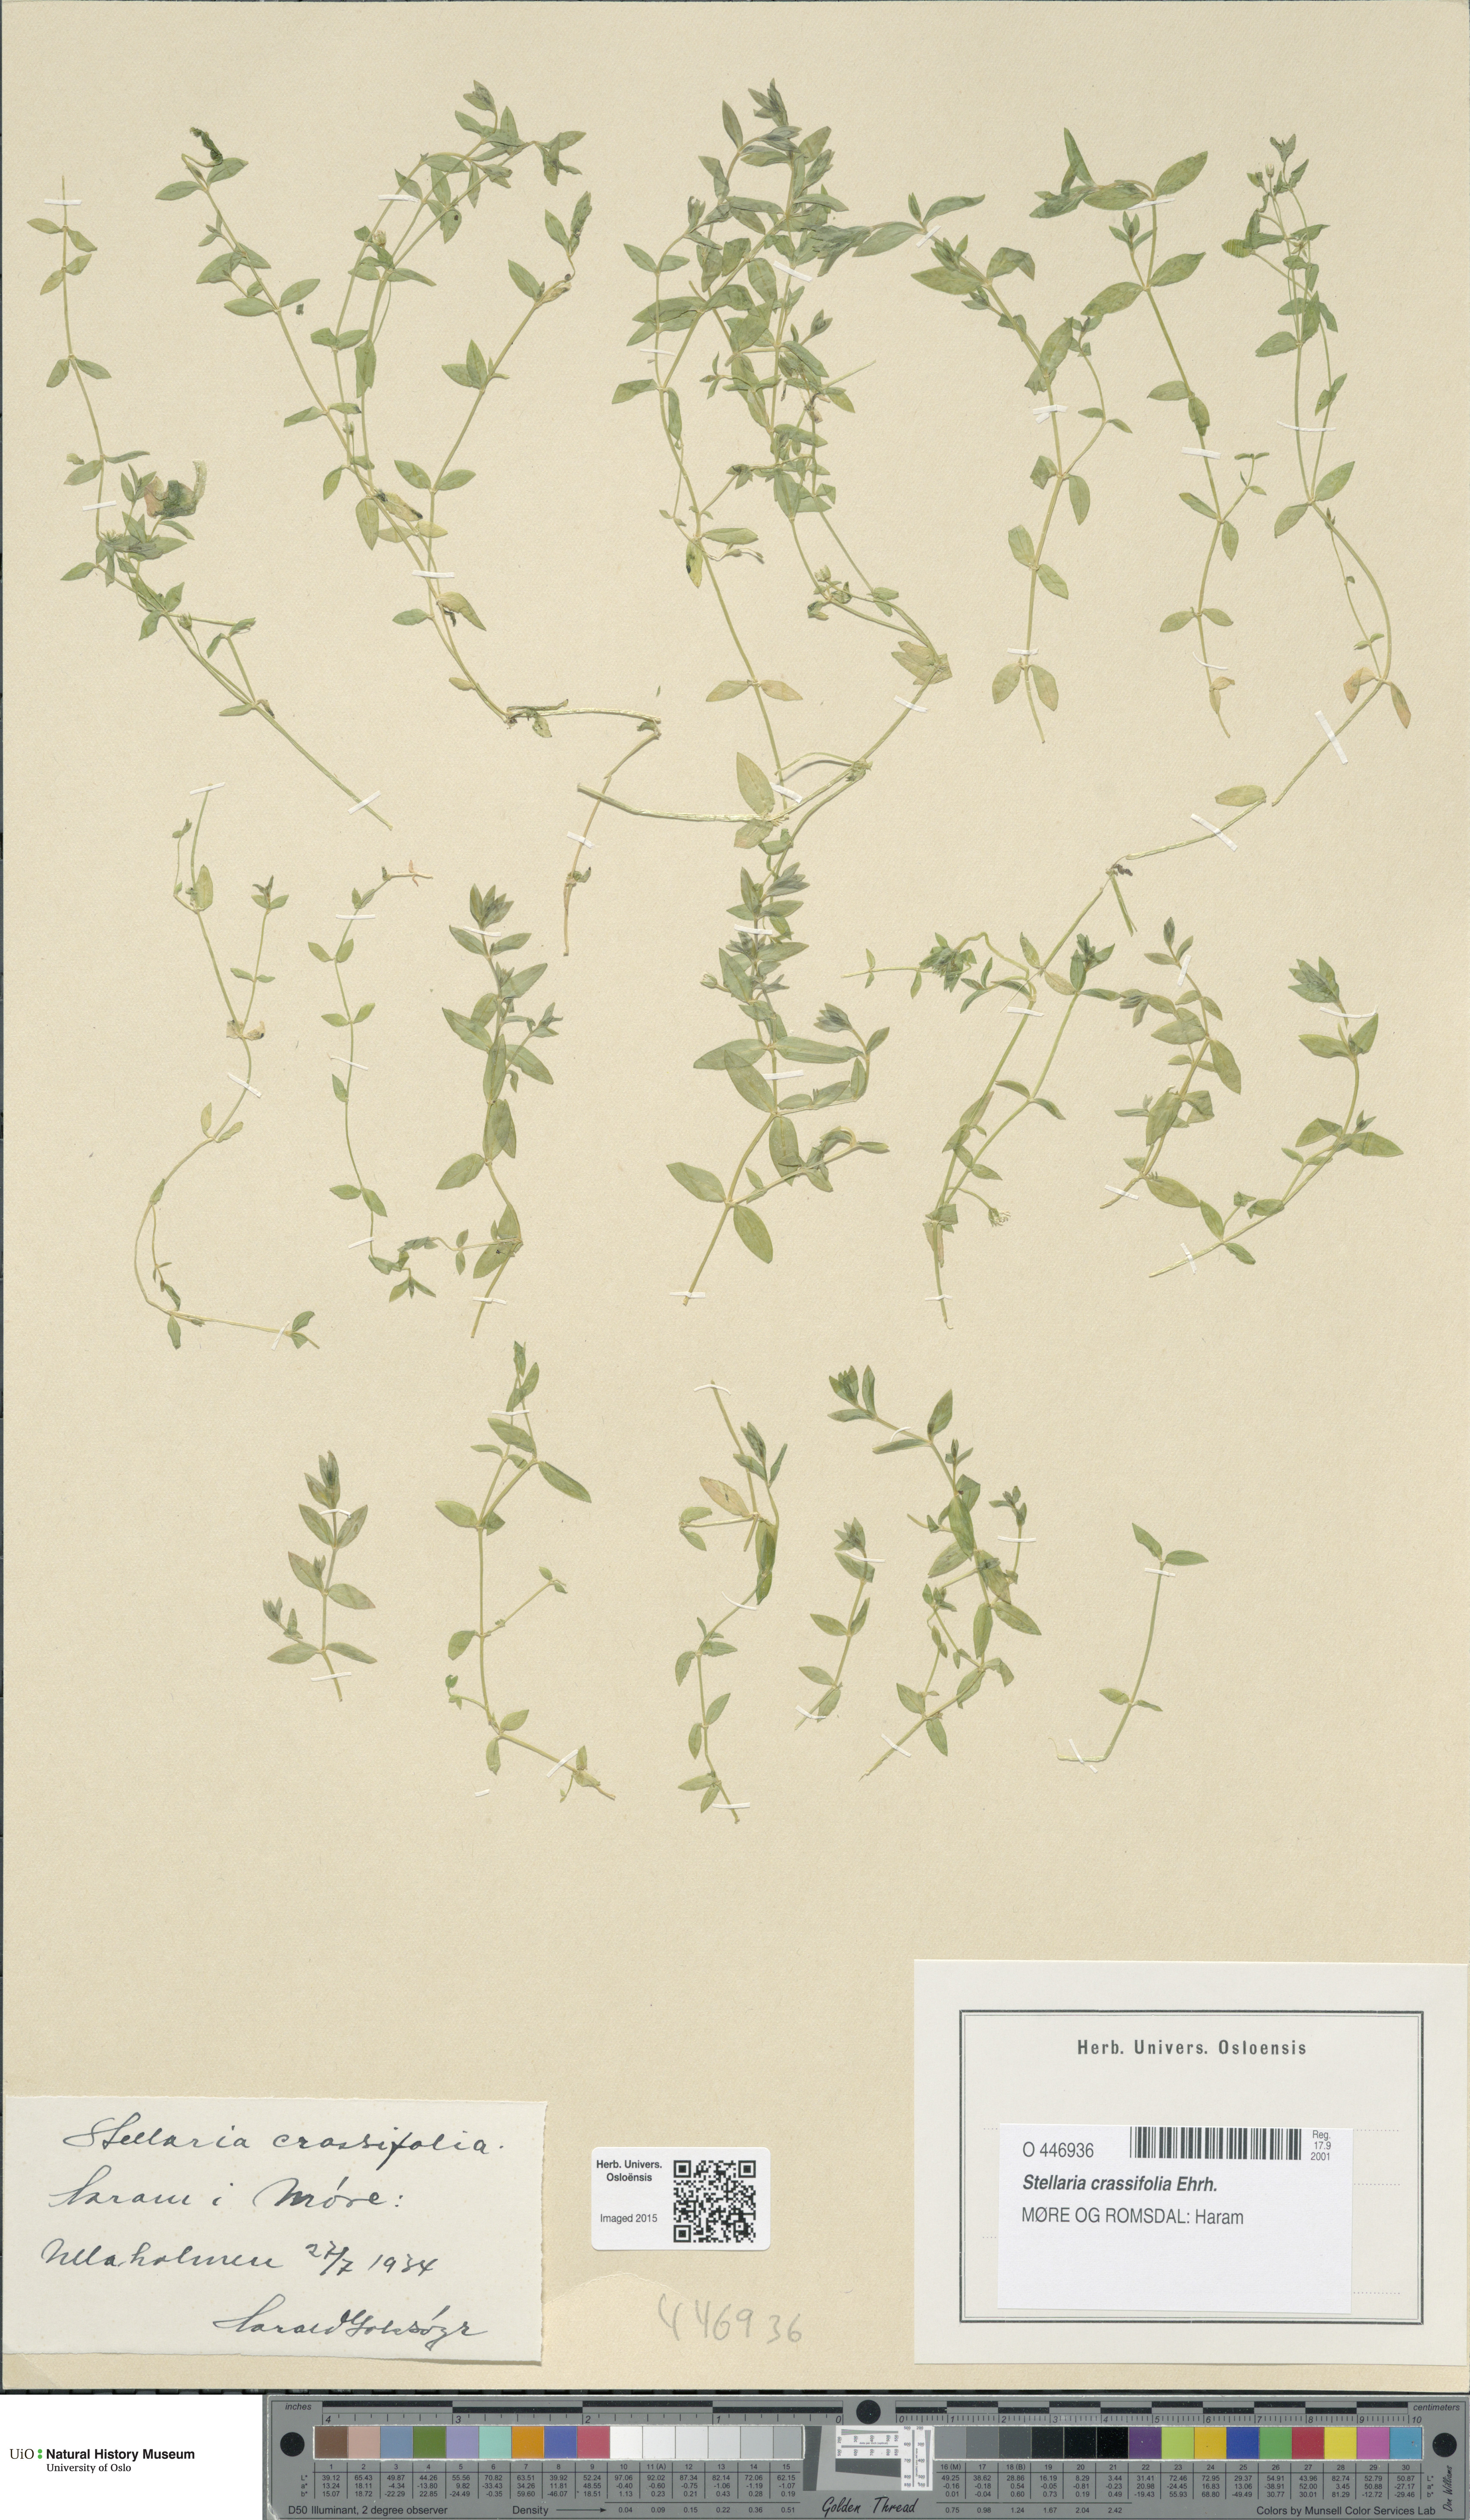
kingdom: Plantae
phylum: Tracheophyta
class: Magnoliopsida
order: Caryophyllales
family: Caryophyllaceae
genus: Stellaria
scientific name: Stellaria crassifolia
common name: Fleshy starwort
